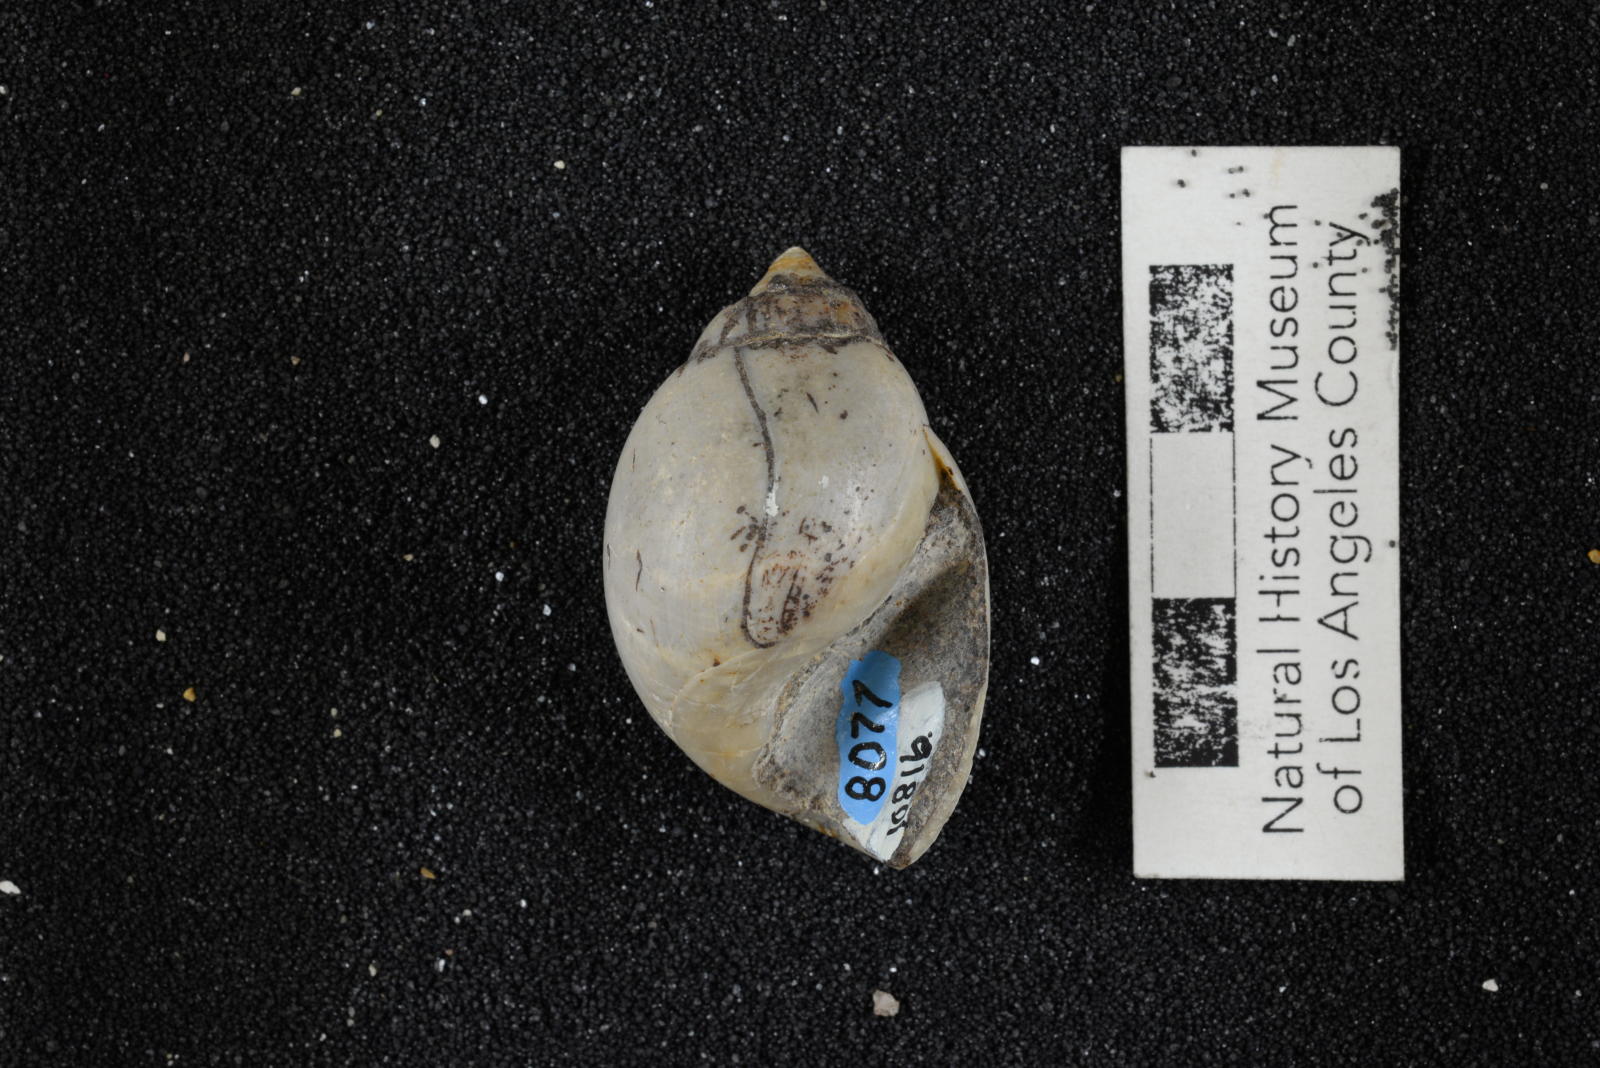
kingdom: Animalia
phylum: Mollusca
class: Gastropoda
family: Pseudomelaniidae
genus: Paosia
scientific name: Paosia Acteonina ursula
